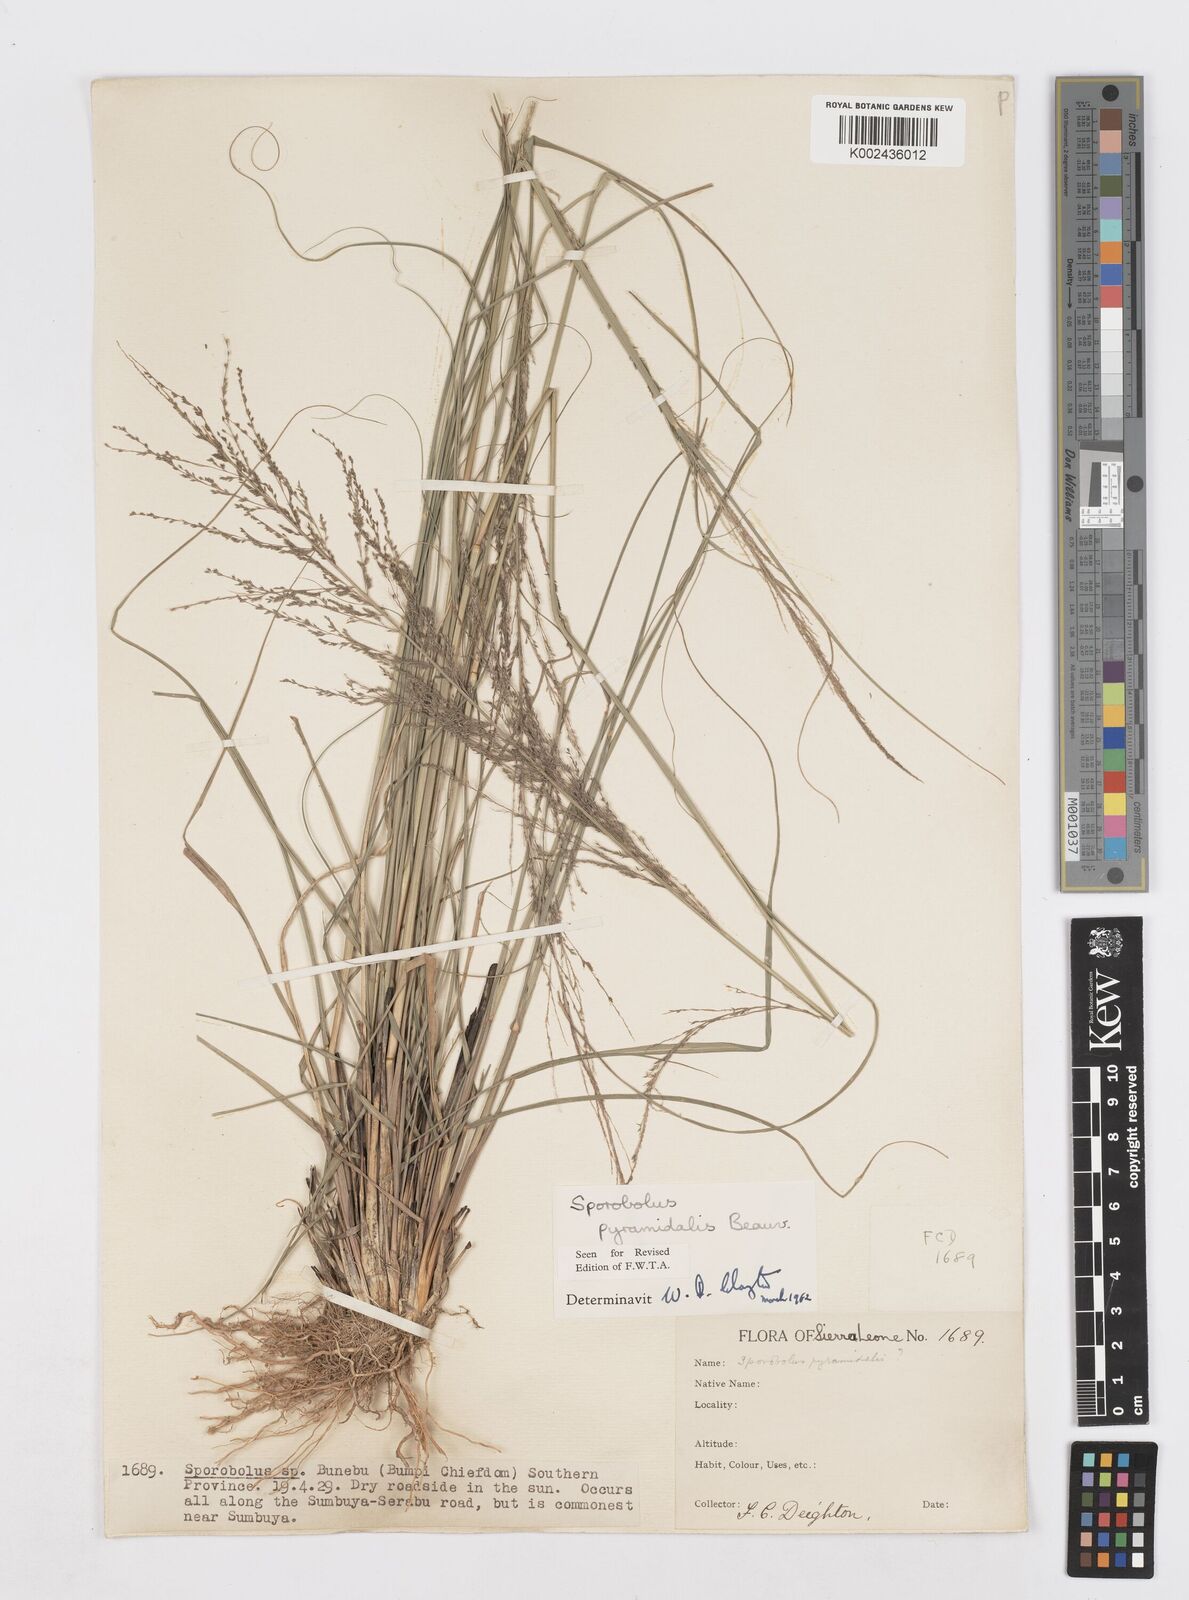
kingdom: Plantae
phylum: Tracheophyta
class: Liliopsida
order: Poales
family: Poaceae
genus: Sporobolus
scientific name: Sporobolus pyramidalis
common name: West indian dropseed
